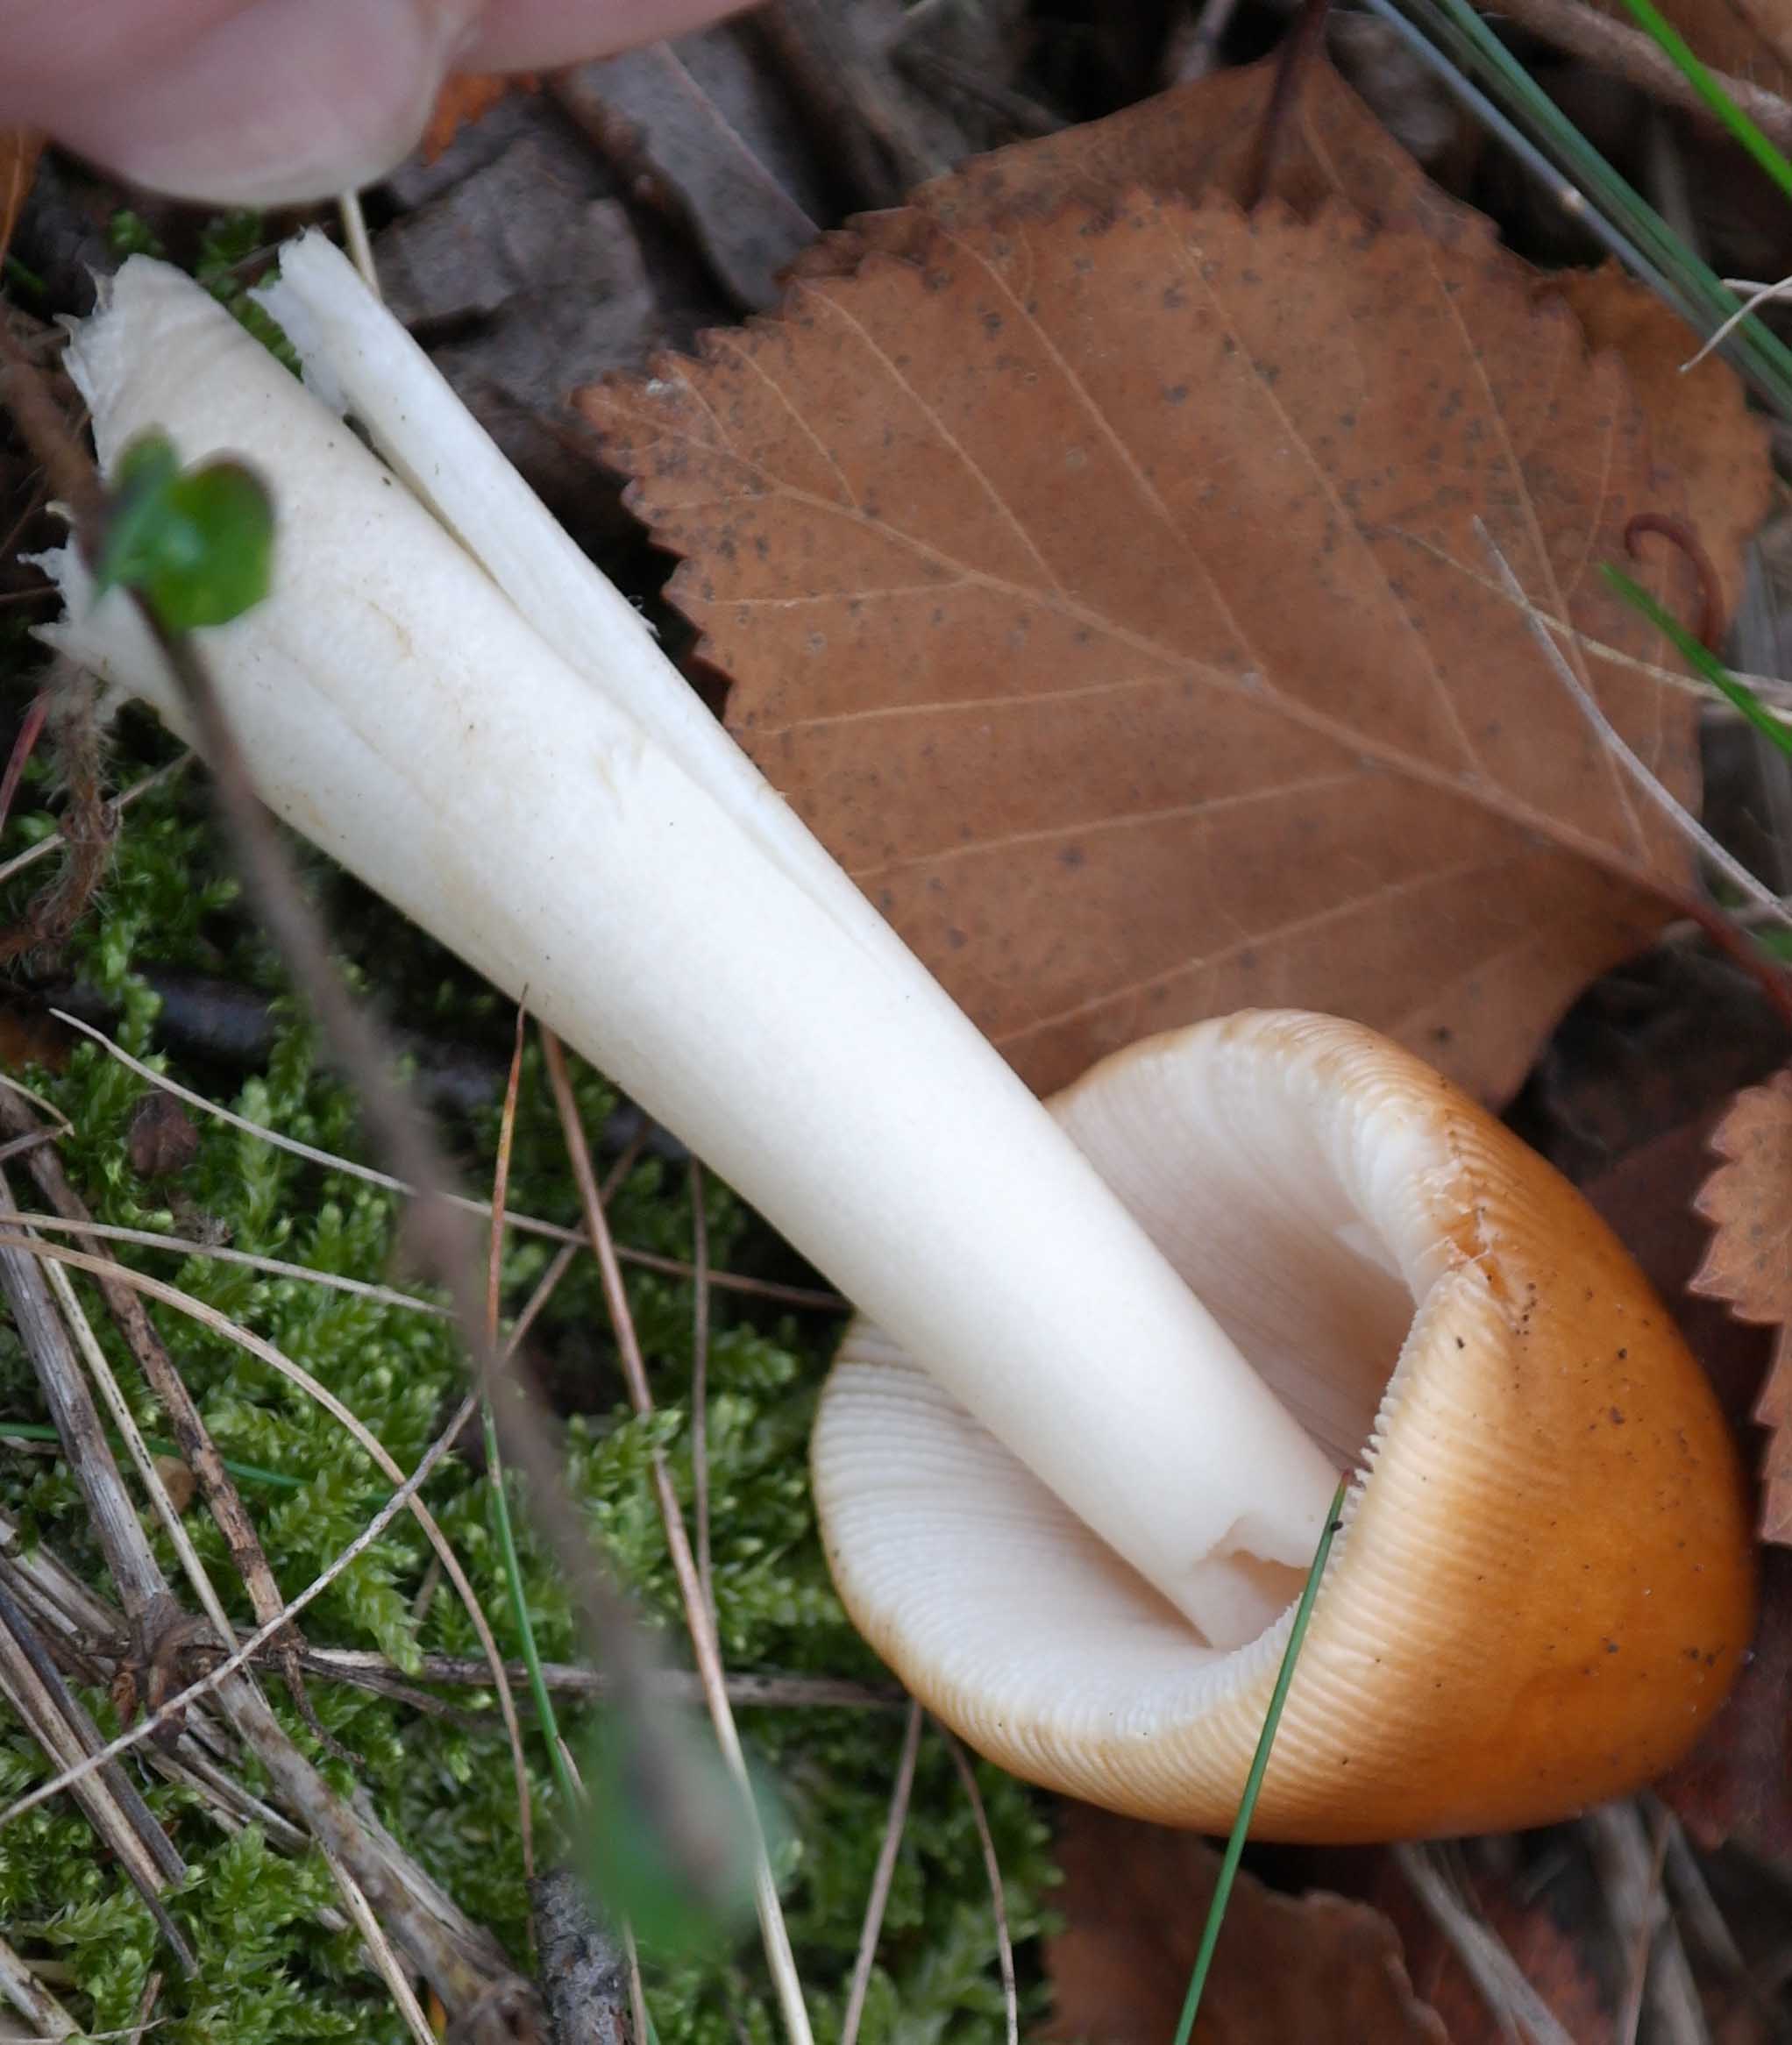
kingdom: Fungi
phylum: Basidiomycota
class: Agaricomycetes
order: Agaricales
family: Amanitaceae
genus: Amanita
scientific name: Amanita fulva
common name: brun kam-fluesvamp
